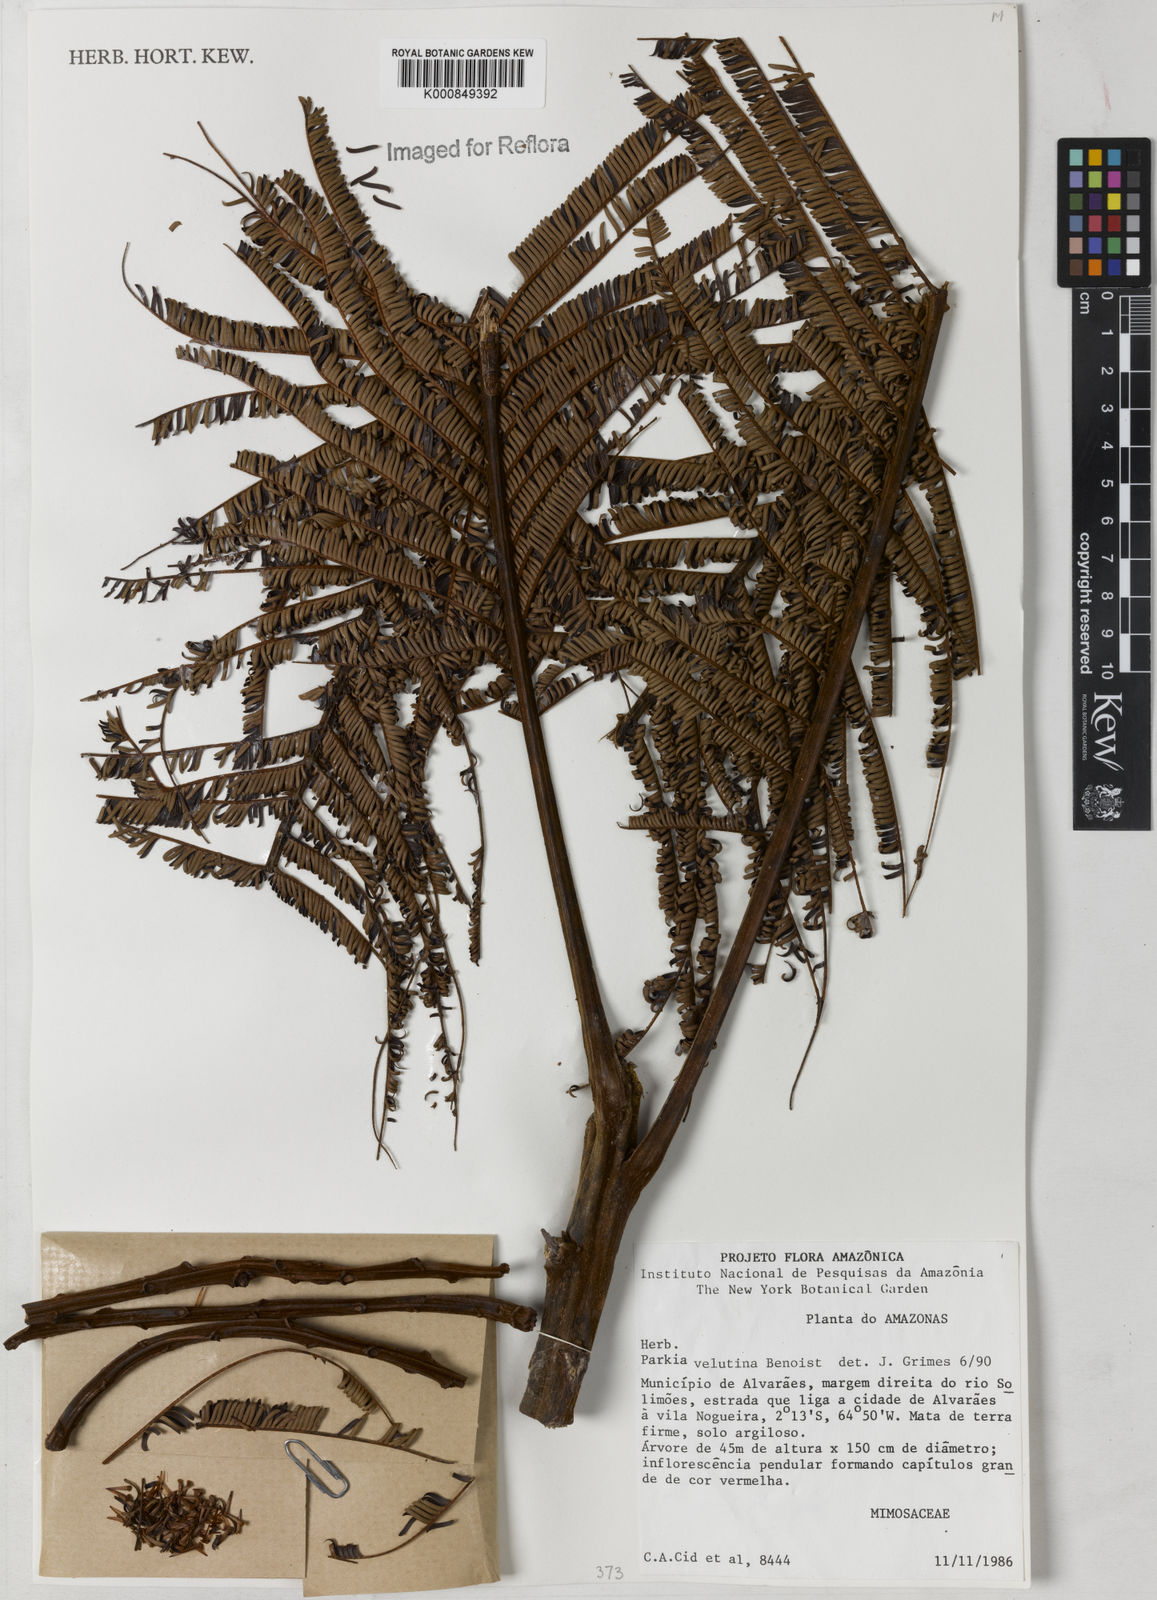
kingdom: Plantae
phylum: Tracheophyta
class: Magnoliopsida
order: Fabales
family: Fabaceae
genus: Parkia
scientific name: Parkia velutina
